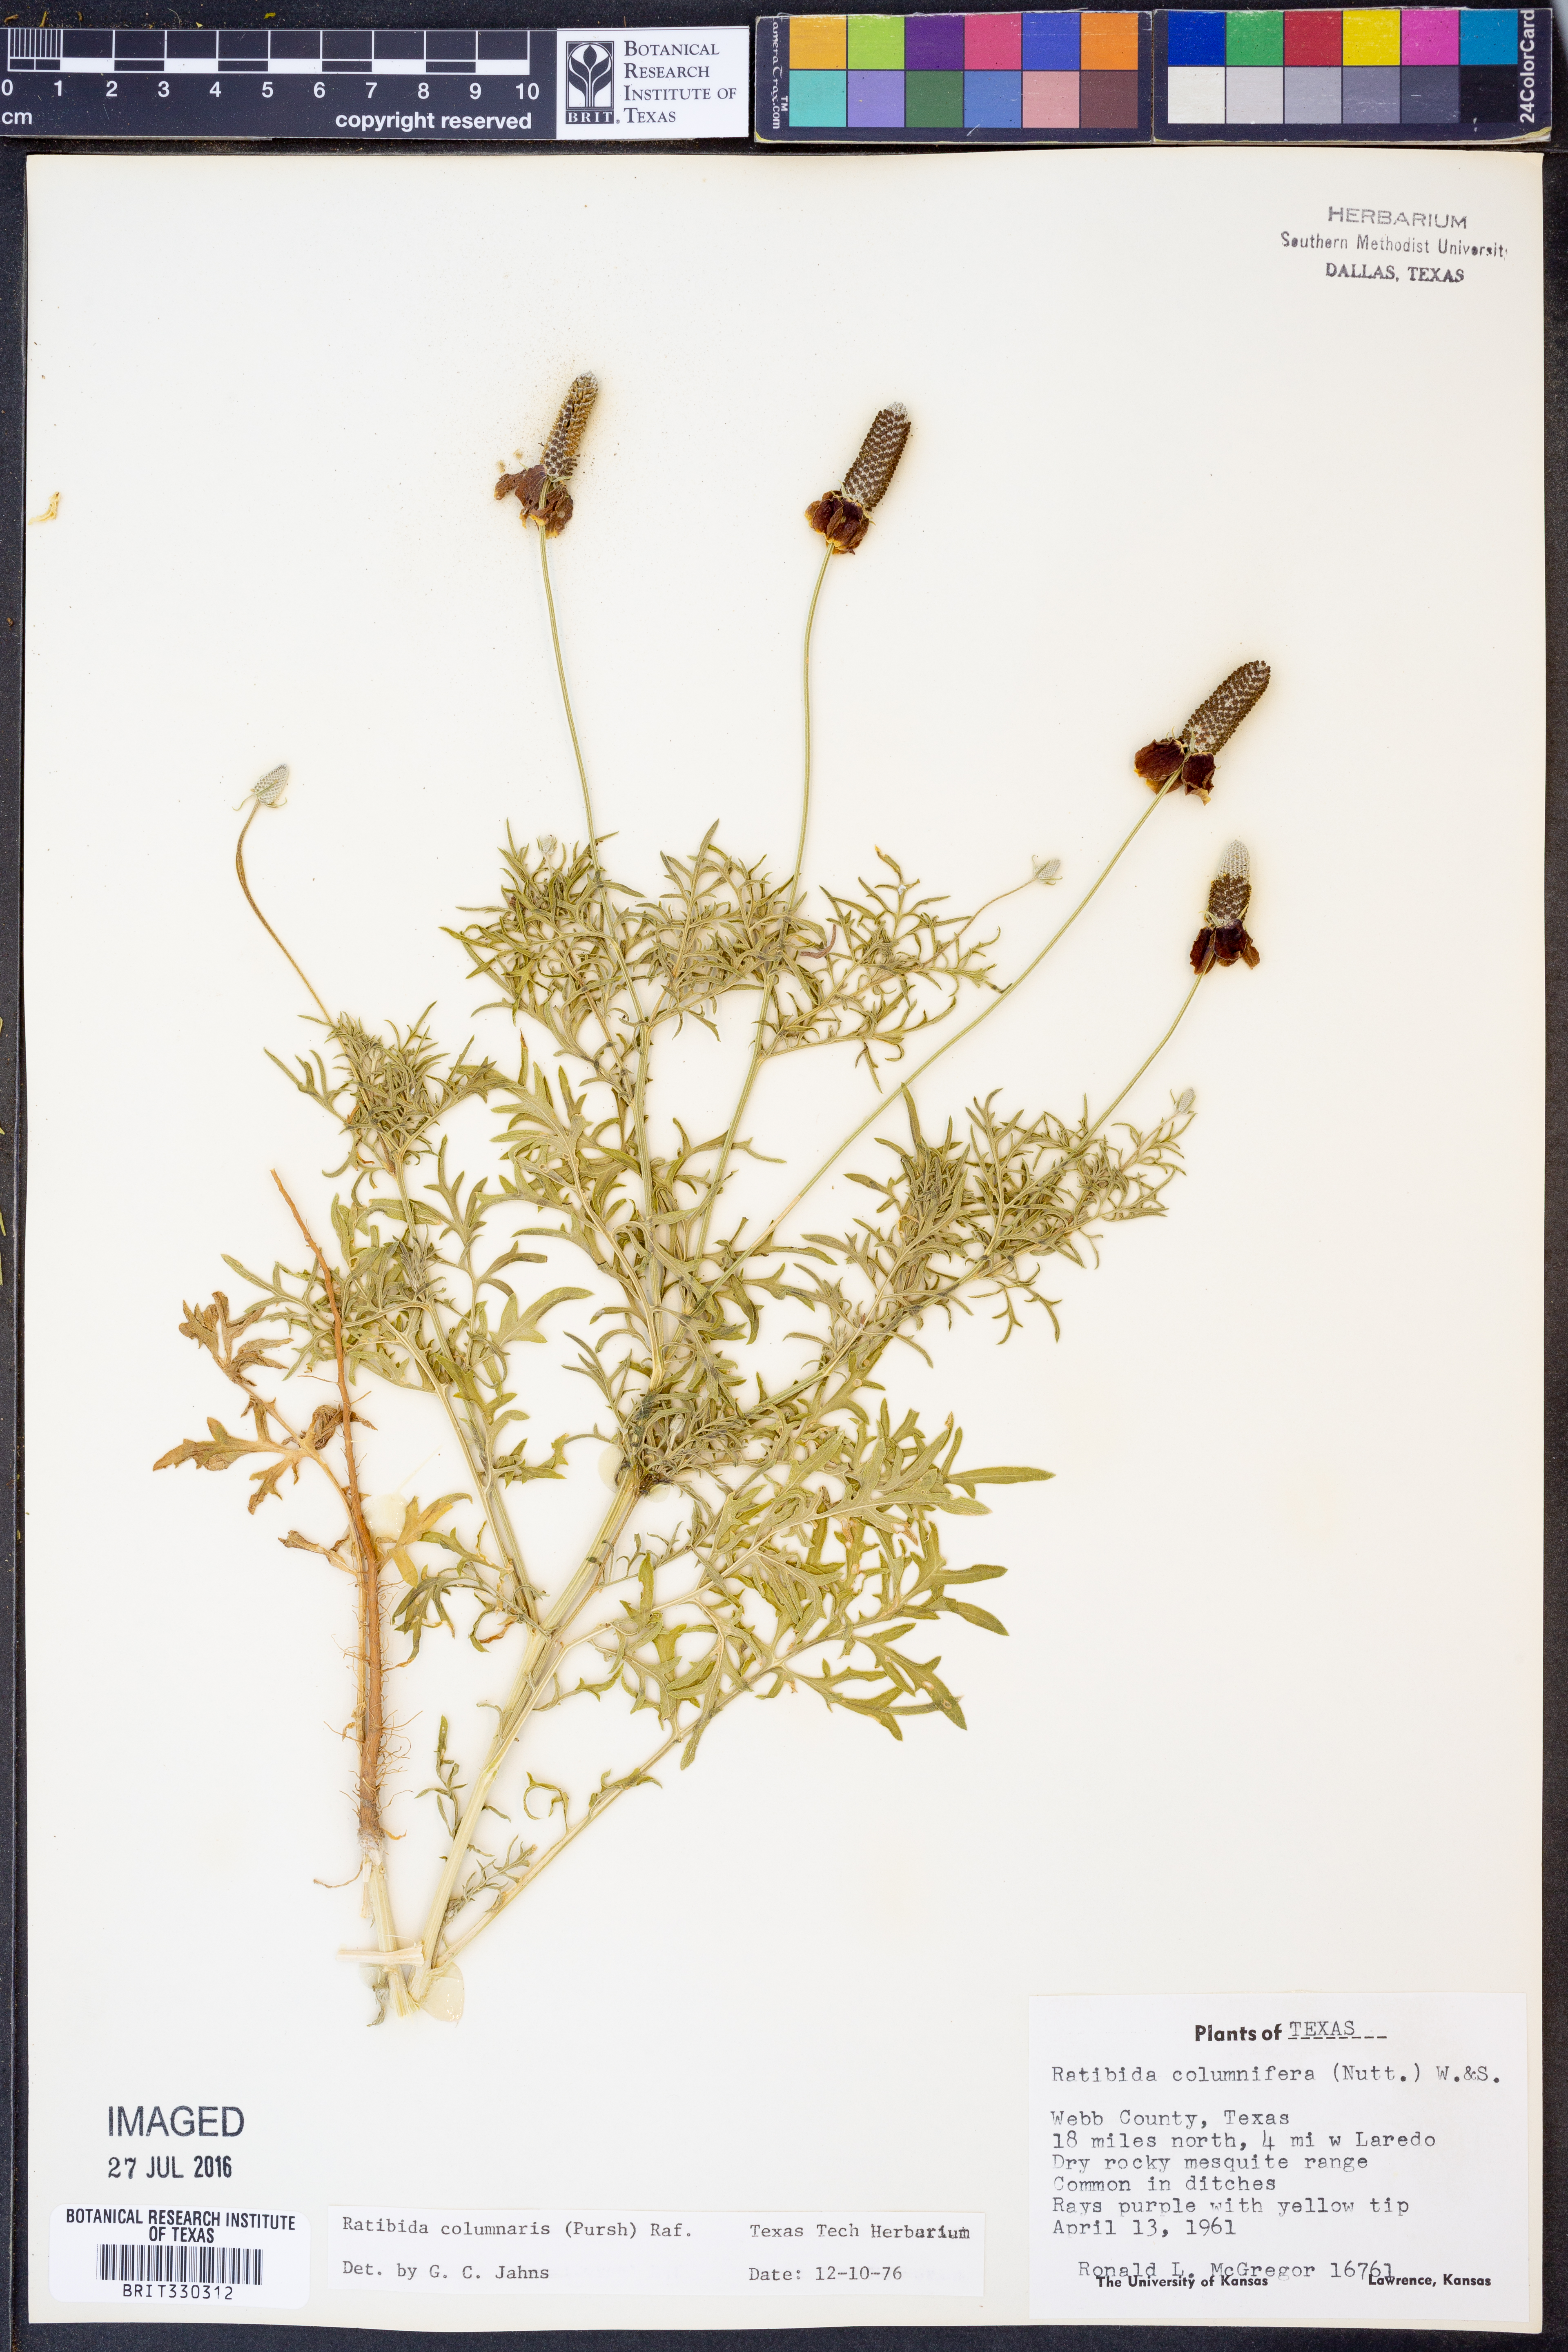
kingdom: Plantae
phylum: Tracheophyta
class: Magnoliopsida
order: Asterales
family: Asteraceae
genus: Ratibida
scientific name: Ratibida columnifera
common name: Prairie coneflower
